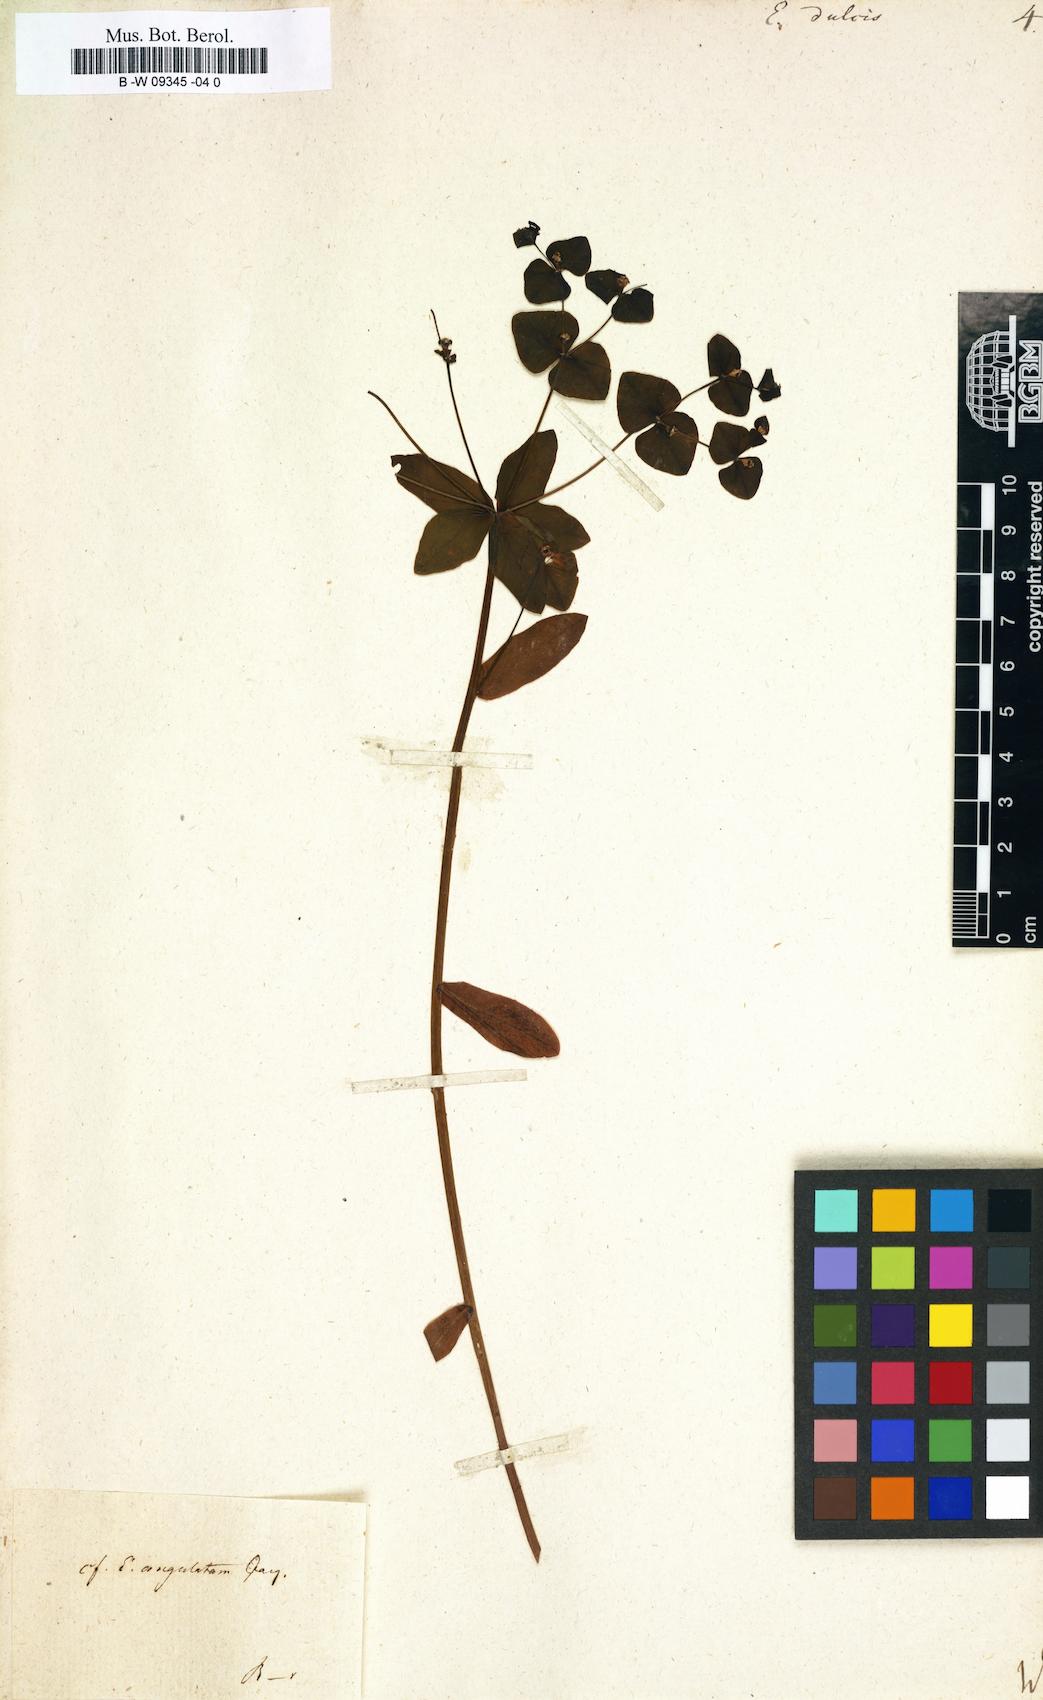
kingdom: Plantae
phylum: Tracheophyta
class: Magnoliopsida
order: Malpighiales
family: Euphorbiaceae
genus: Euphorbia
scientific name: Euphorbia dulcis
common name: Sweet spurge
